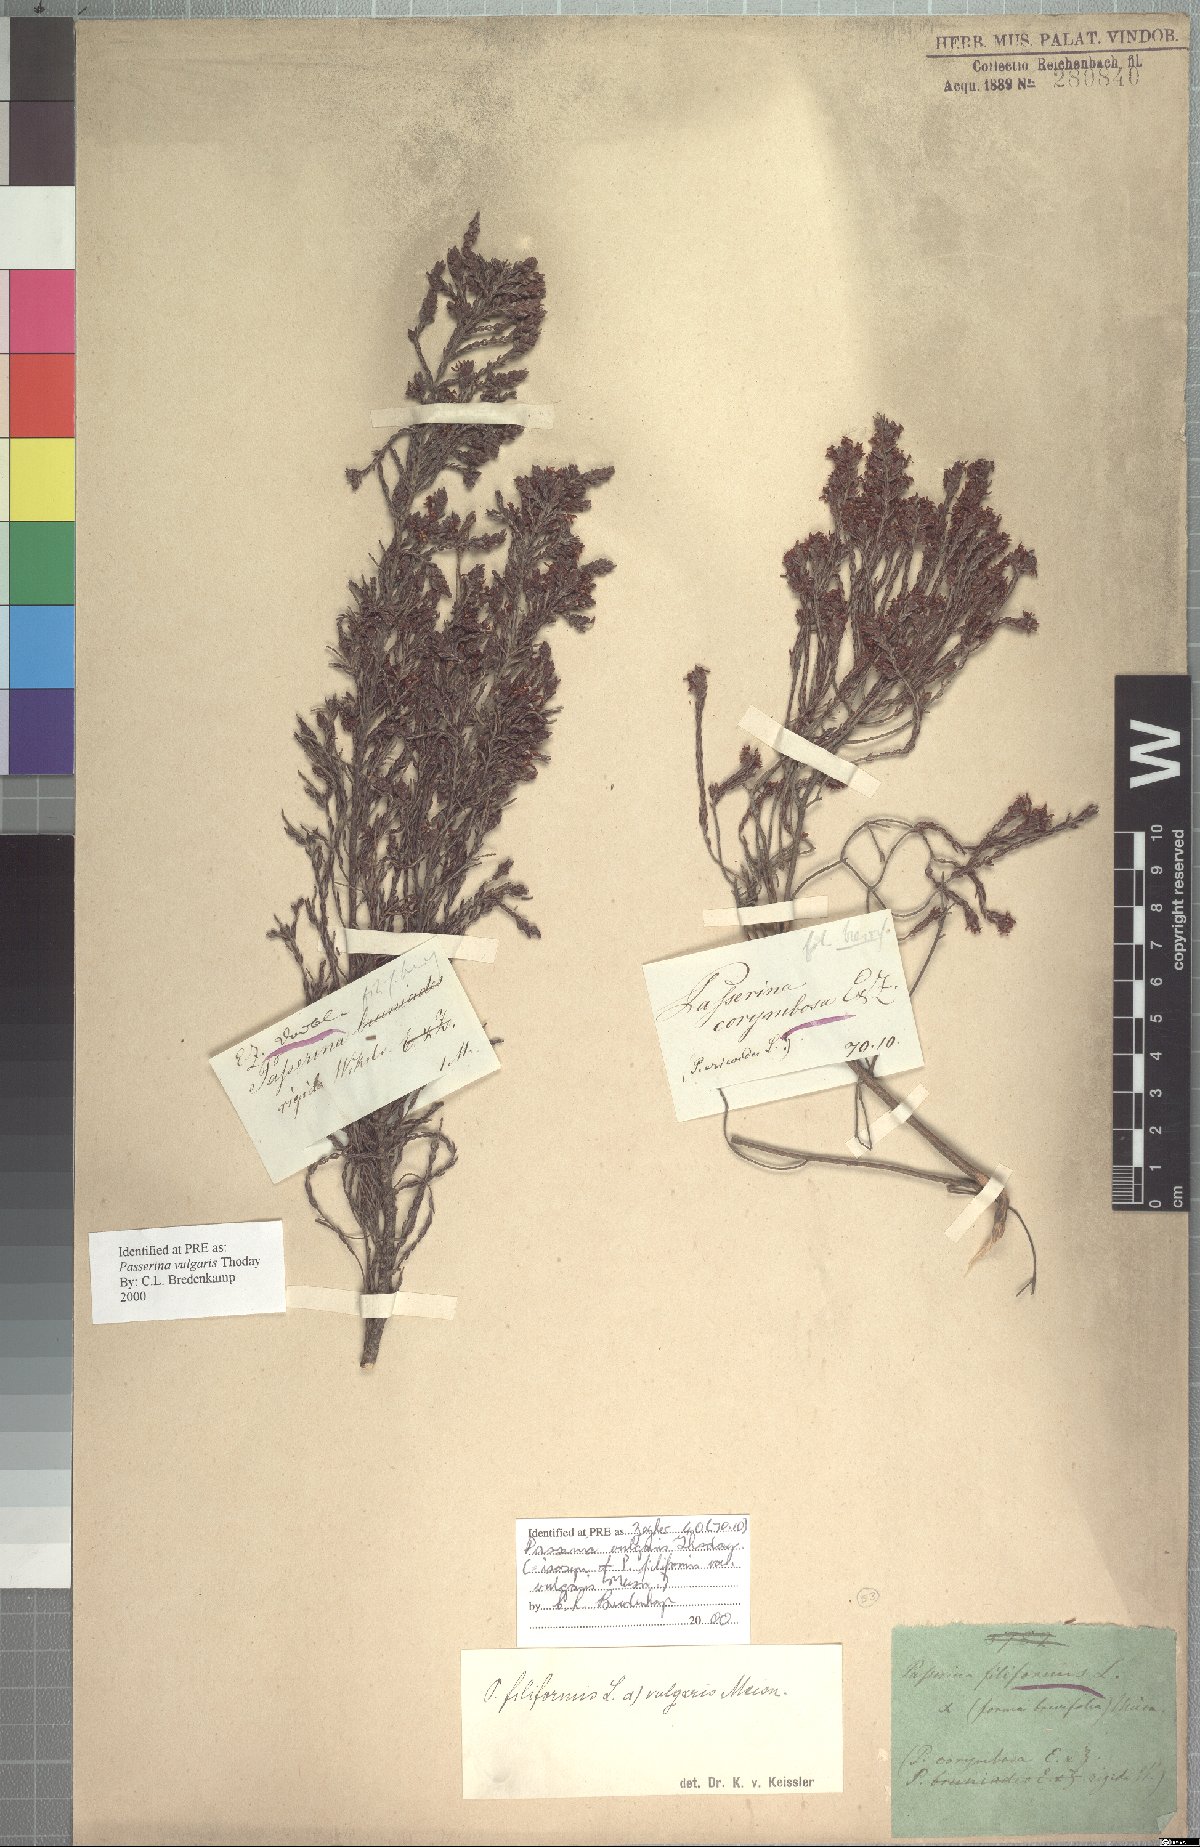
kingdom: Plantae
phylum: Tracheophyta
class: Magnoliopsida
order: Malvales
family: Thymelaeaceae
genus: Passerina
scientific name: Passerina corymbosa
